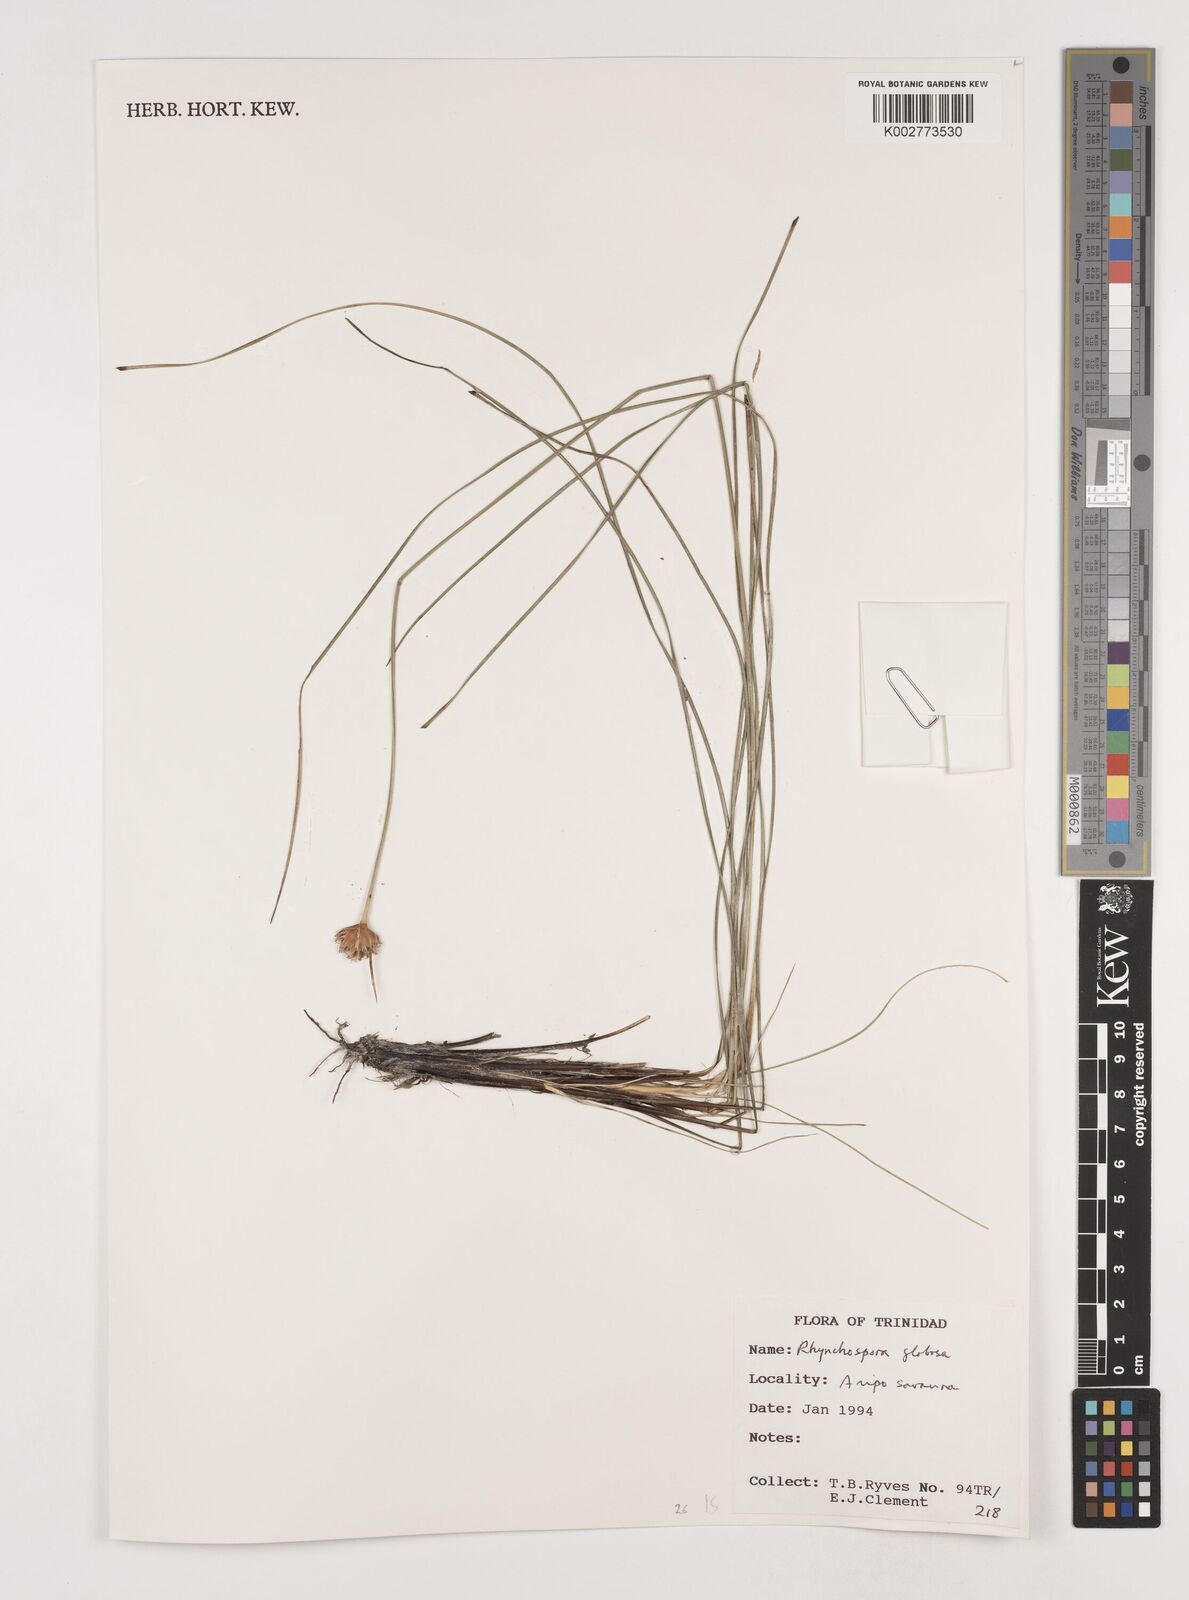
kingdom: Plantae
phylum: Tracheophyta
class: Liliopsida
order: Poales
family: Cyperaceae
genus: Rhynchospora
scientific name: Rhynchospora globosa
